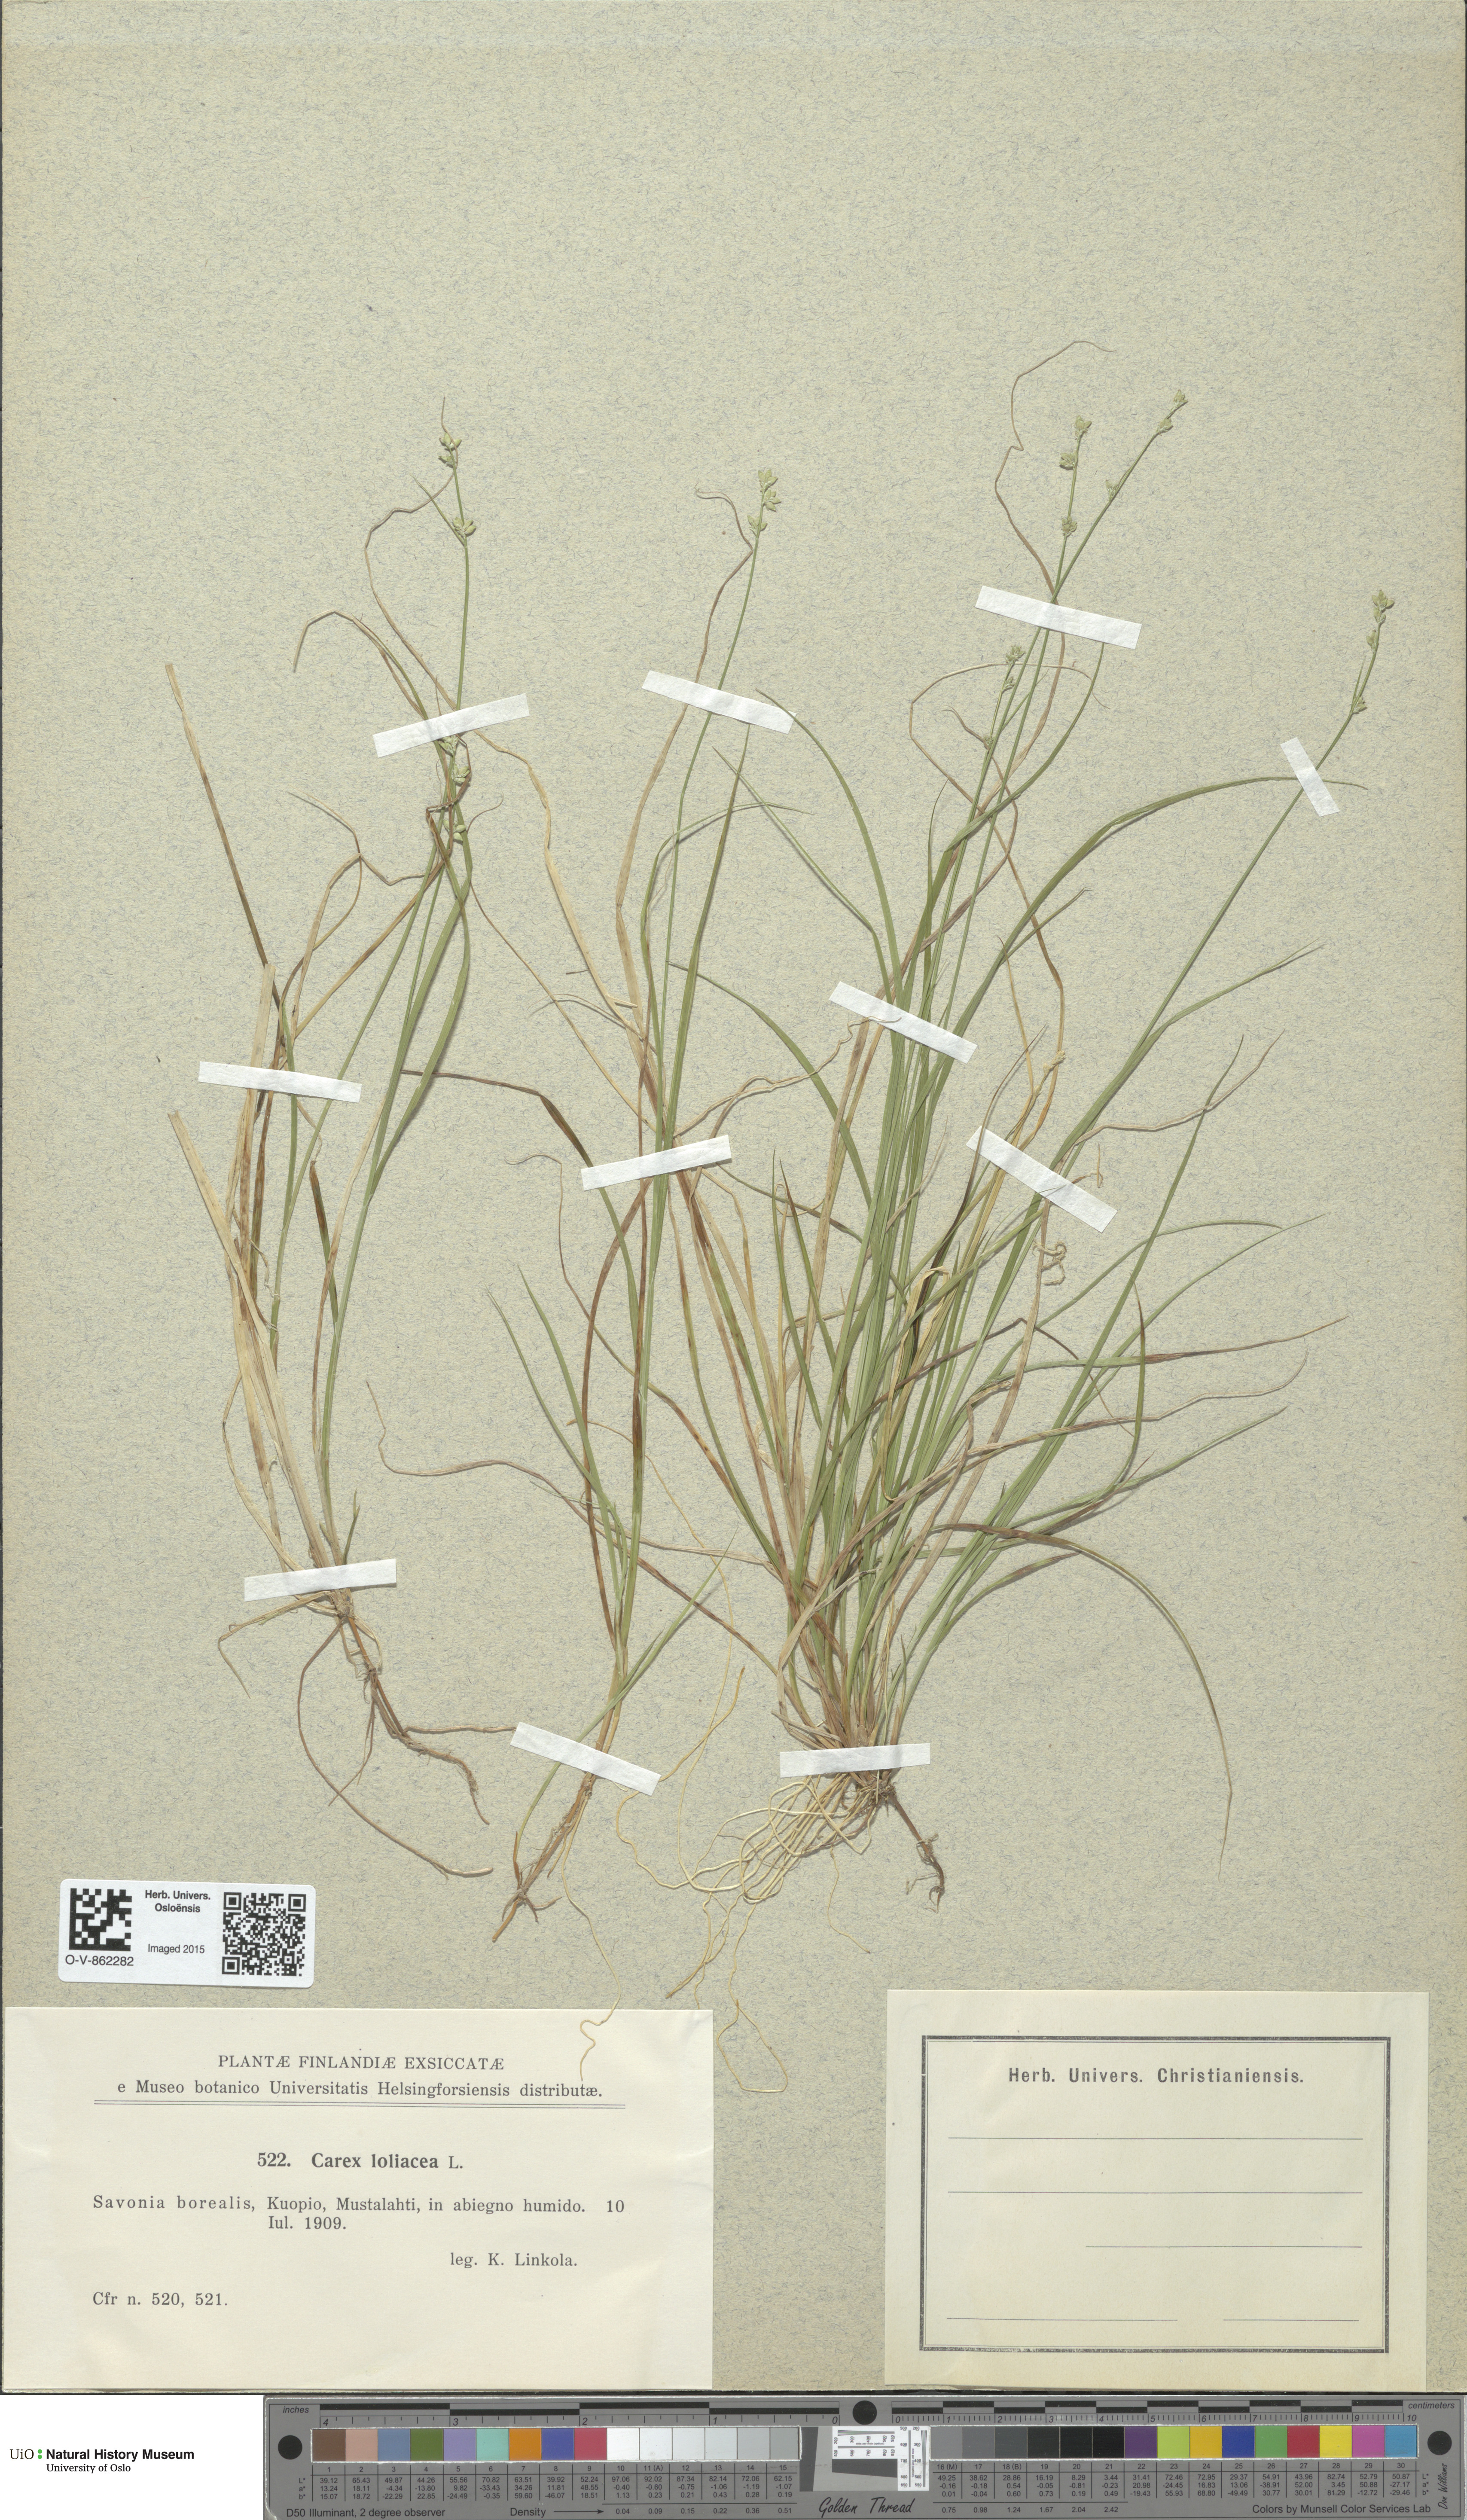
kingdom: Plantae
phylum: Tracheophyta
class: Liliopsida
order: Poales
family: Cyperaceae
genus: Carex
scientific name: Carex loliacea
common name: Ryegrass sedge
